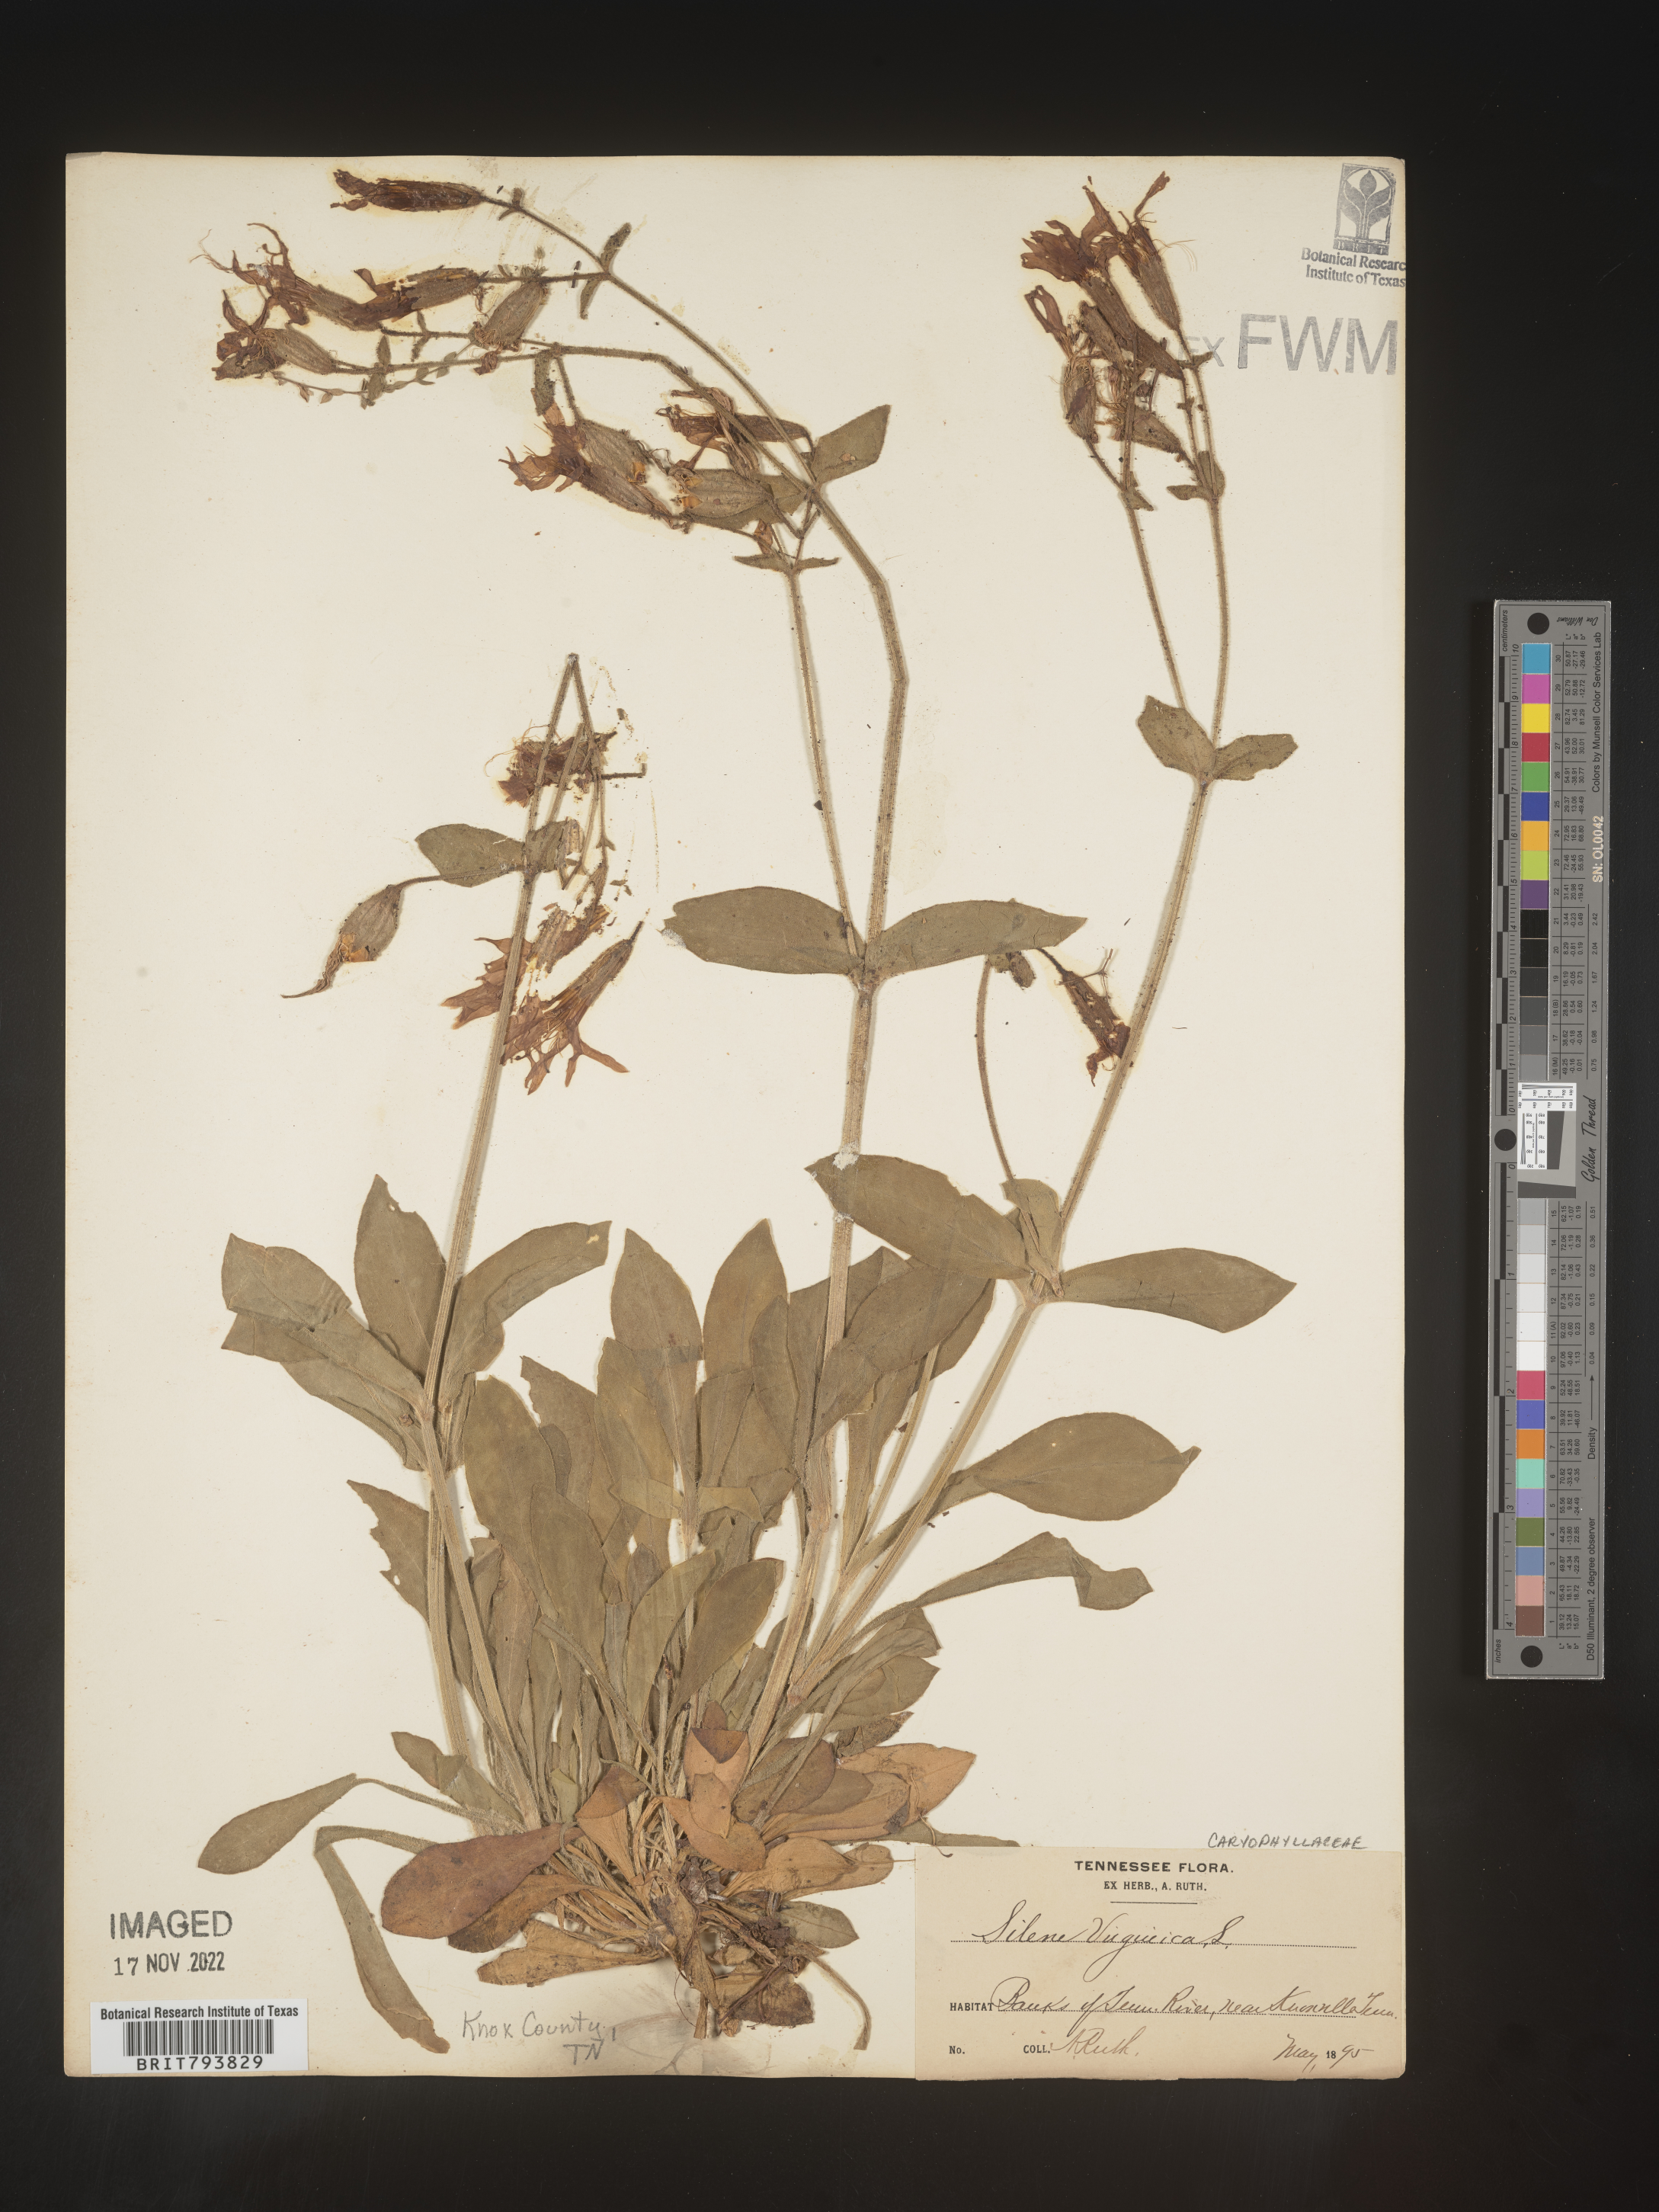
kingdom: Plantae
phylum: Tracheophyta
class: Magnoliopsida
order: Caryophyllales
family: Caryophyllaceae
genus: Silene
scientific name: Silene virginica
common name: Fire-pink
